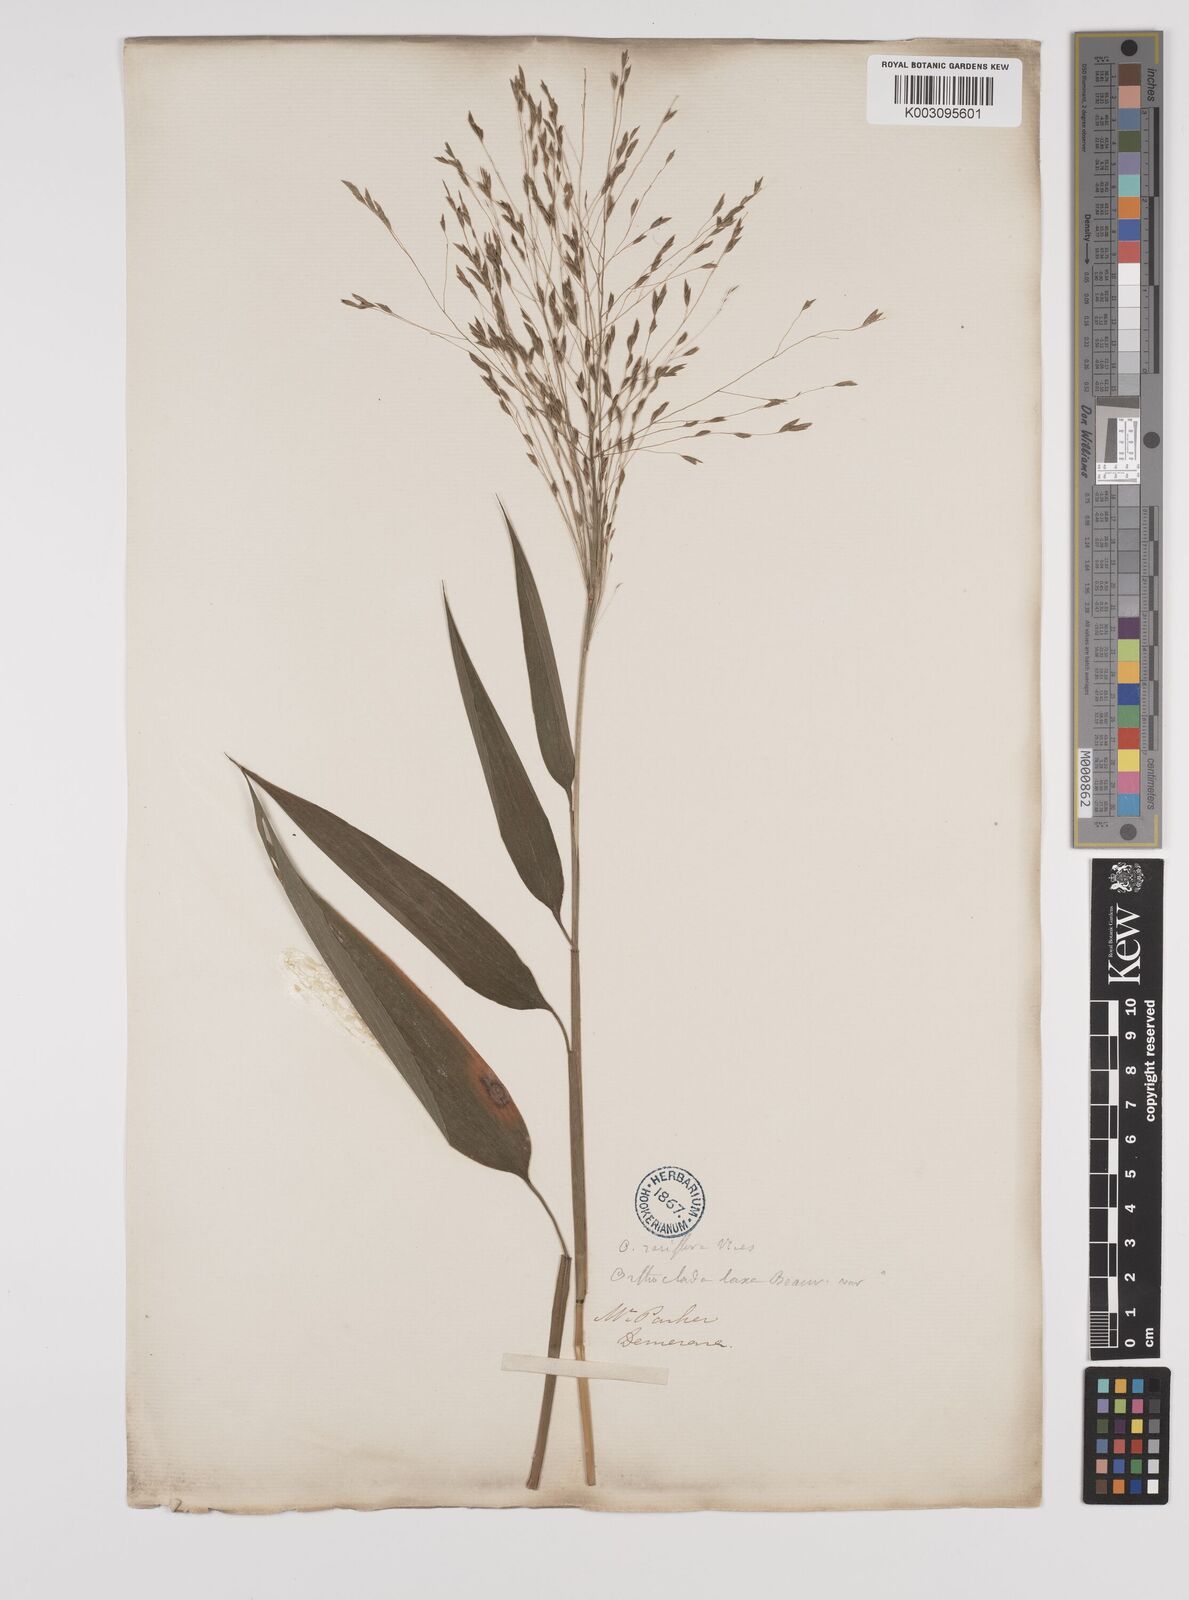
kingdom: Plantae
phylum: Tracheophyta
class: Liliopsida
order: Poales
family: Poaceae
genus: Orthoclada
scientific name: Orthoclada laxa
